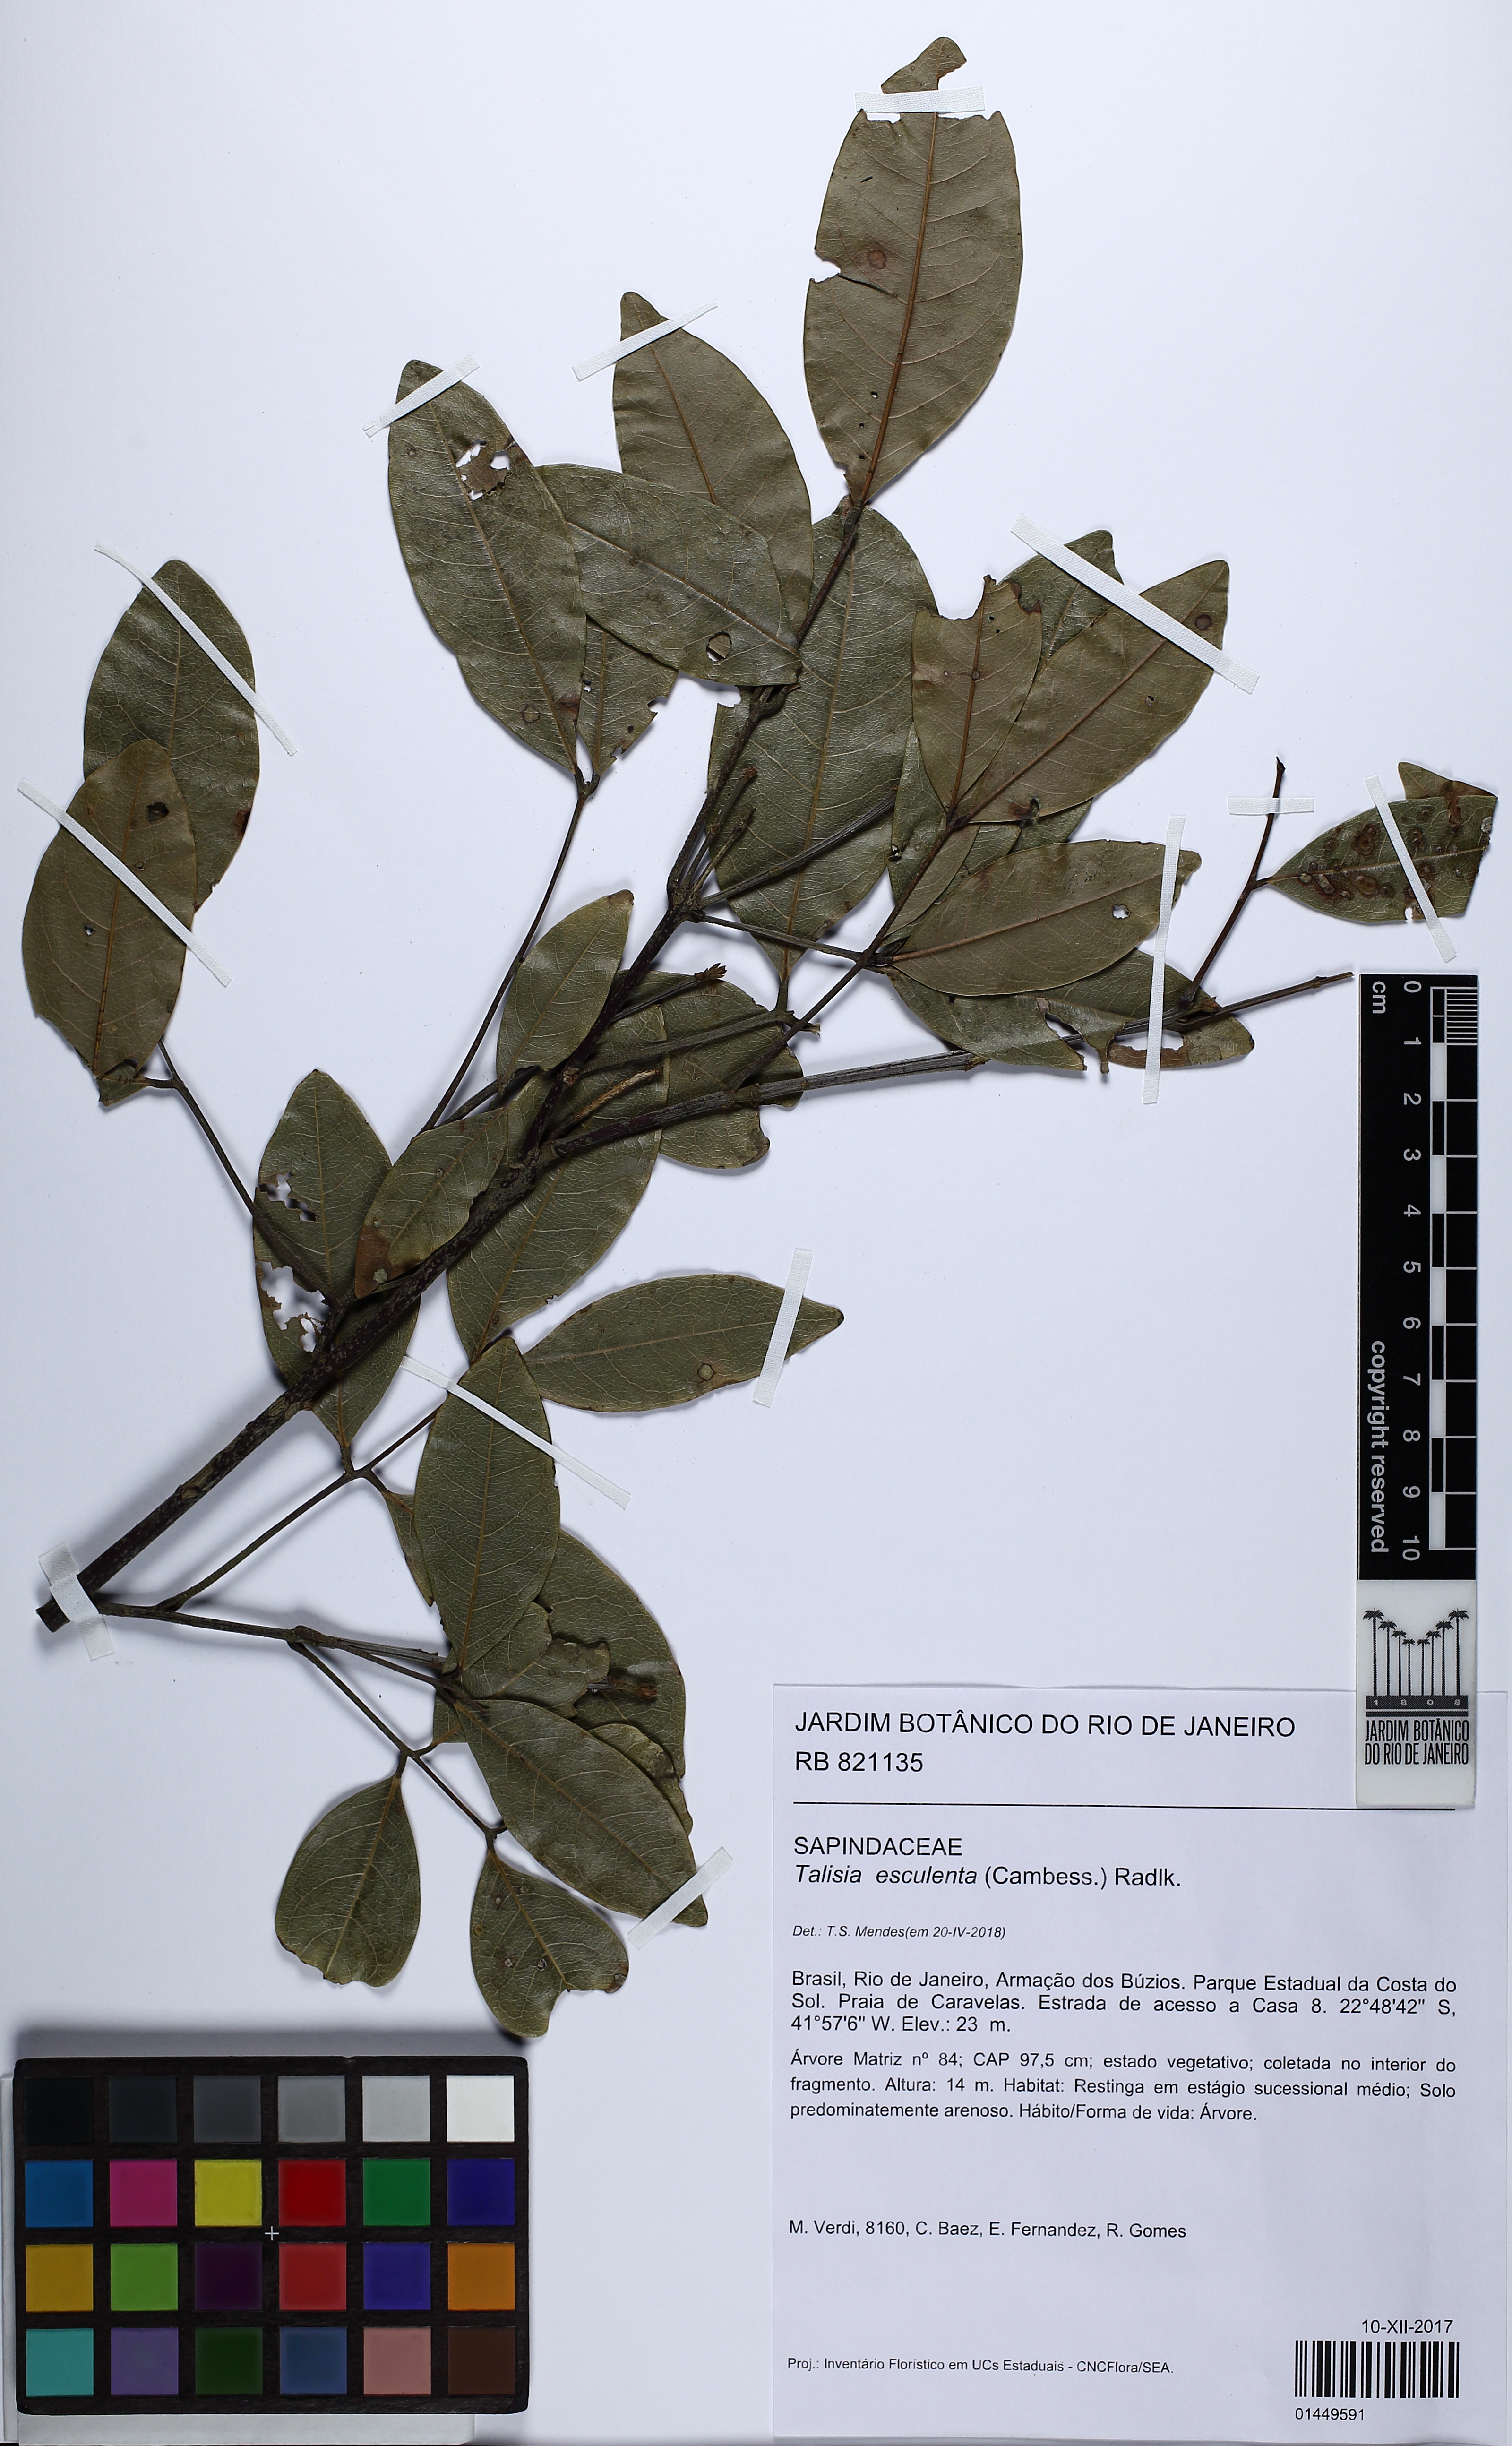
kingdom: Plantae
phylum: Tracheophyta
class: Magnoliopsida
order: Sapindales
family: Sapindaceae
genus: Talisia
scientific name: Talisia esculenta
